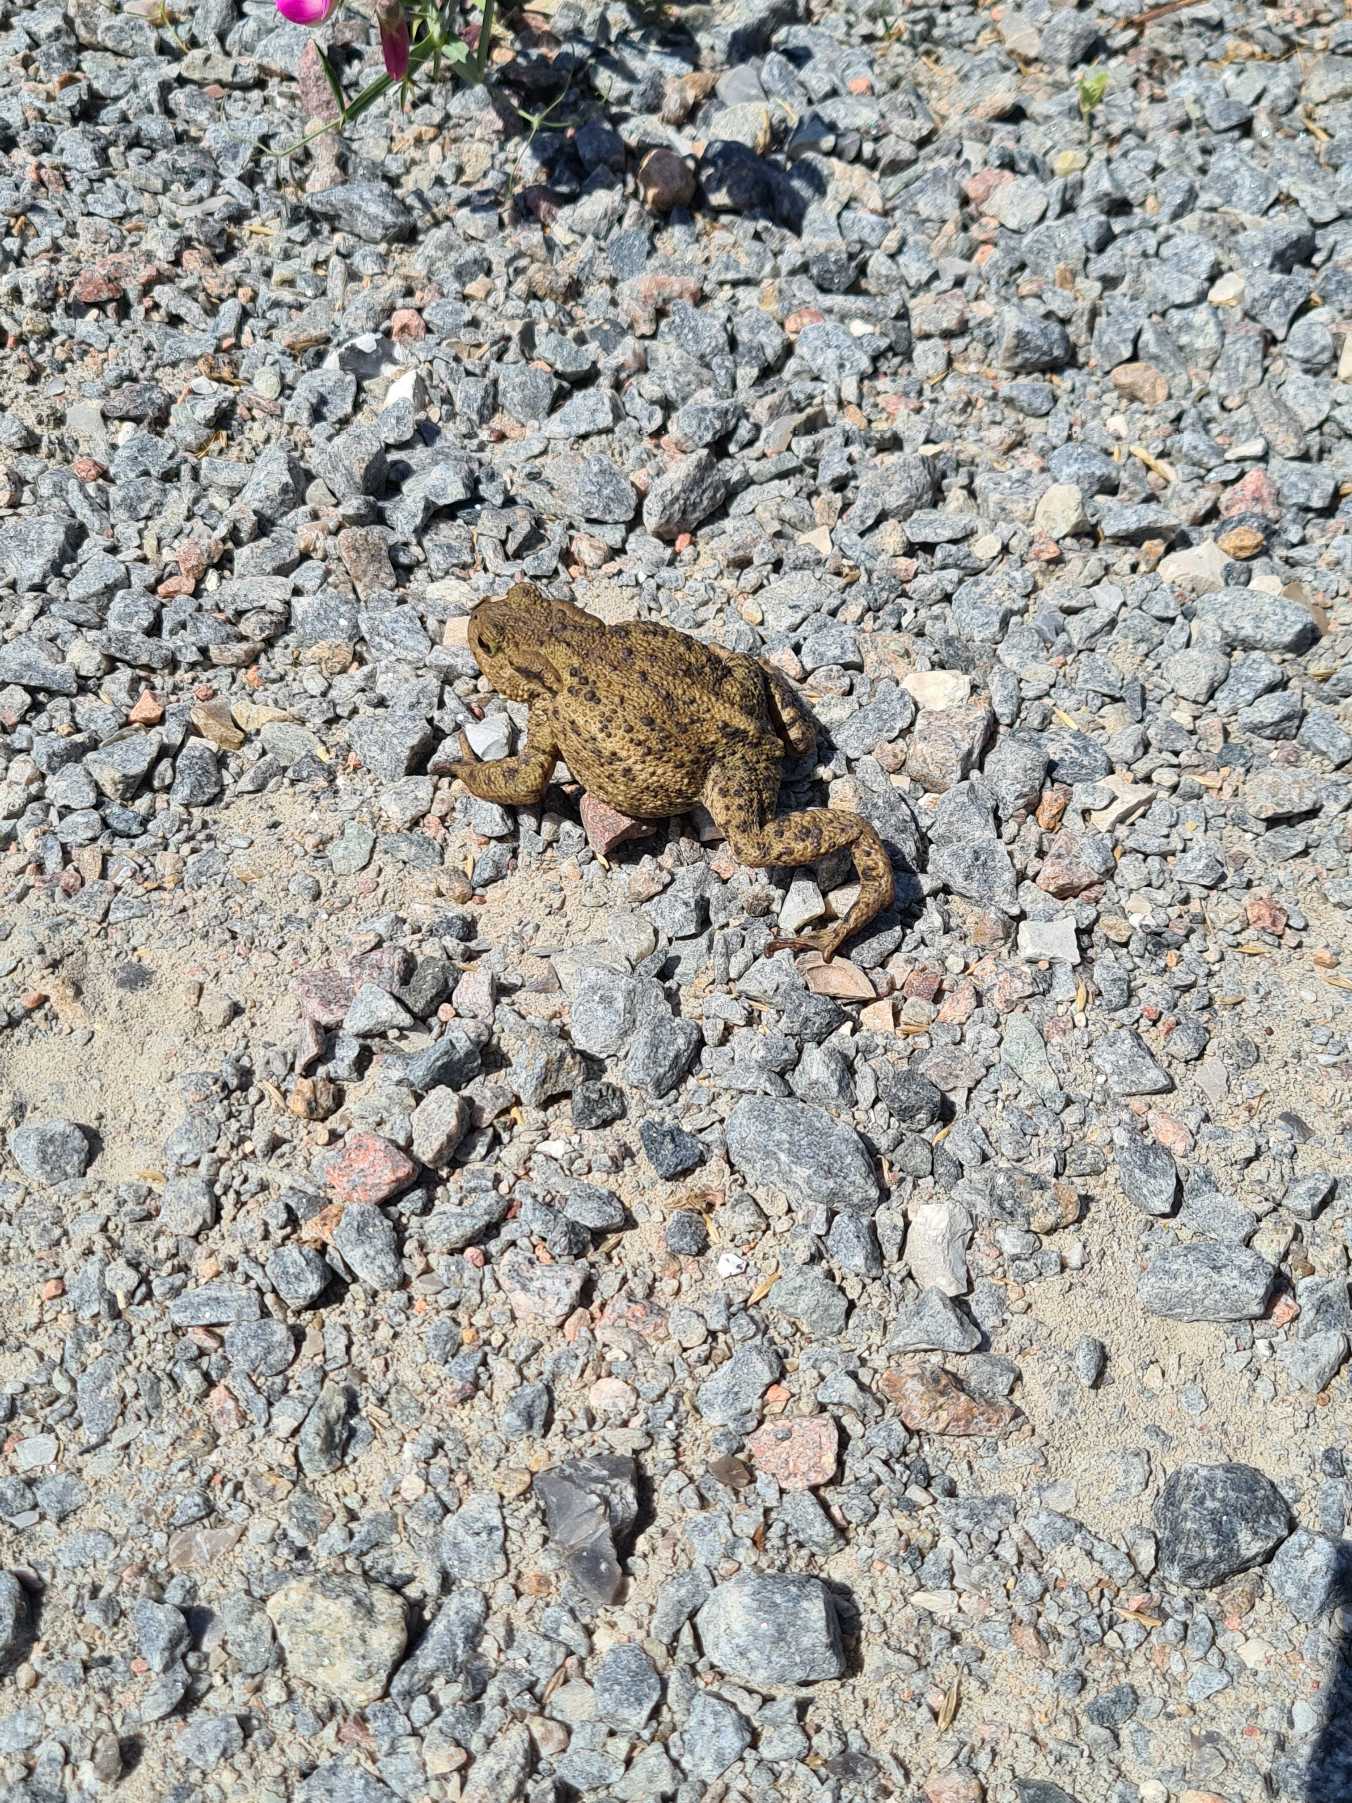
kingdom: Animalia
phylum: Chordata
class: Amphibia
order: Anura
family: Bufonidae
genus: Bufo
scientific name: Bufo bufo
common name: Skrubtudse
